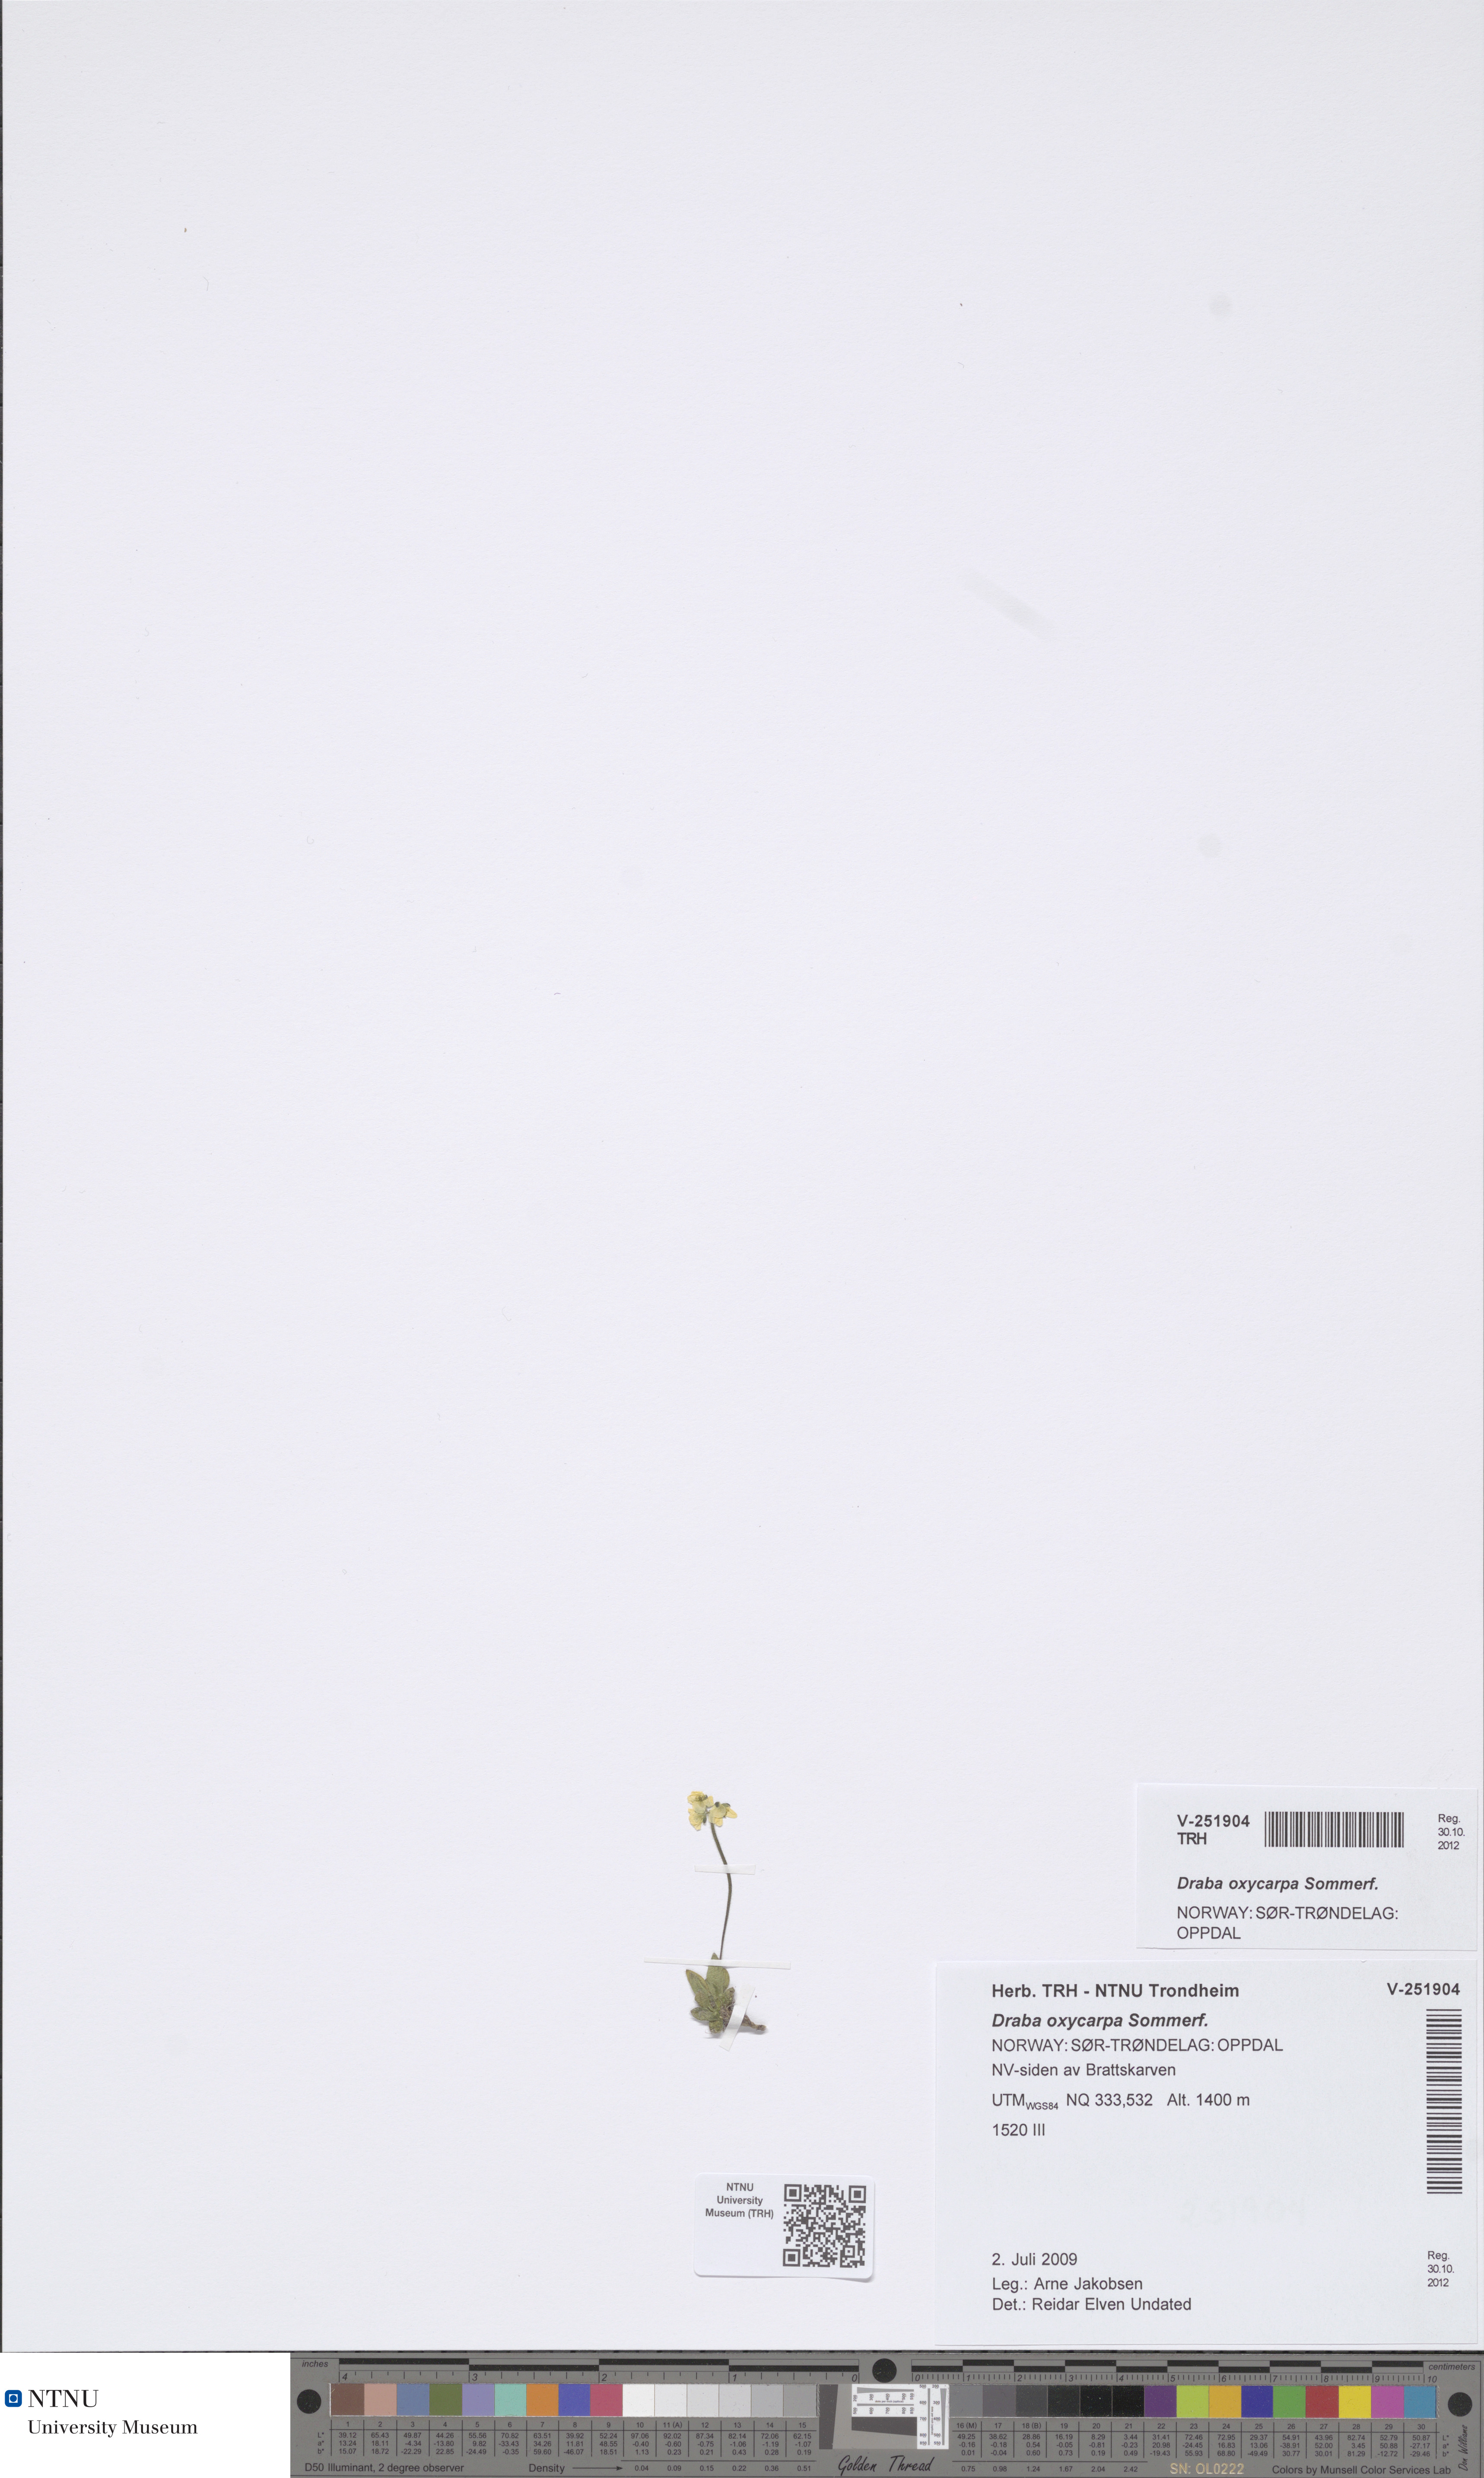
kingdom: Plantae
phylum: Tracheophyta
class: Magnoliopsida
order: Brassicales
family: Brassicaceae
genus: Draba
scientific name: Draba oxycarpa
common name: Sharp-fruited whitlow-grass
